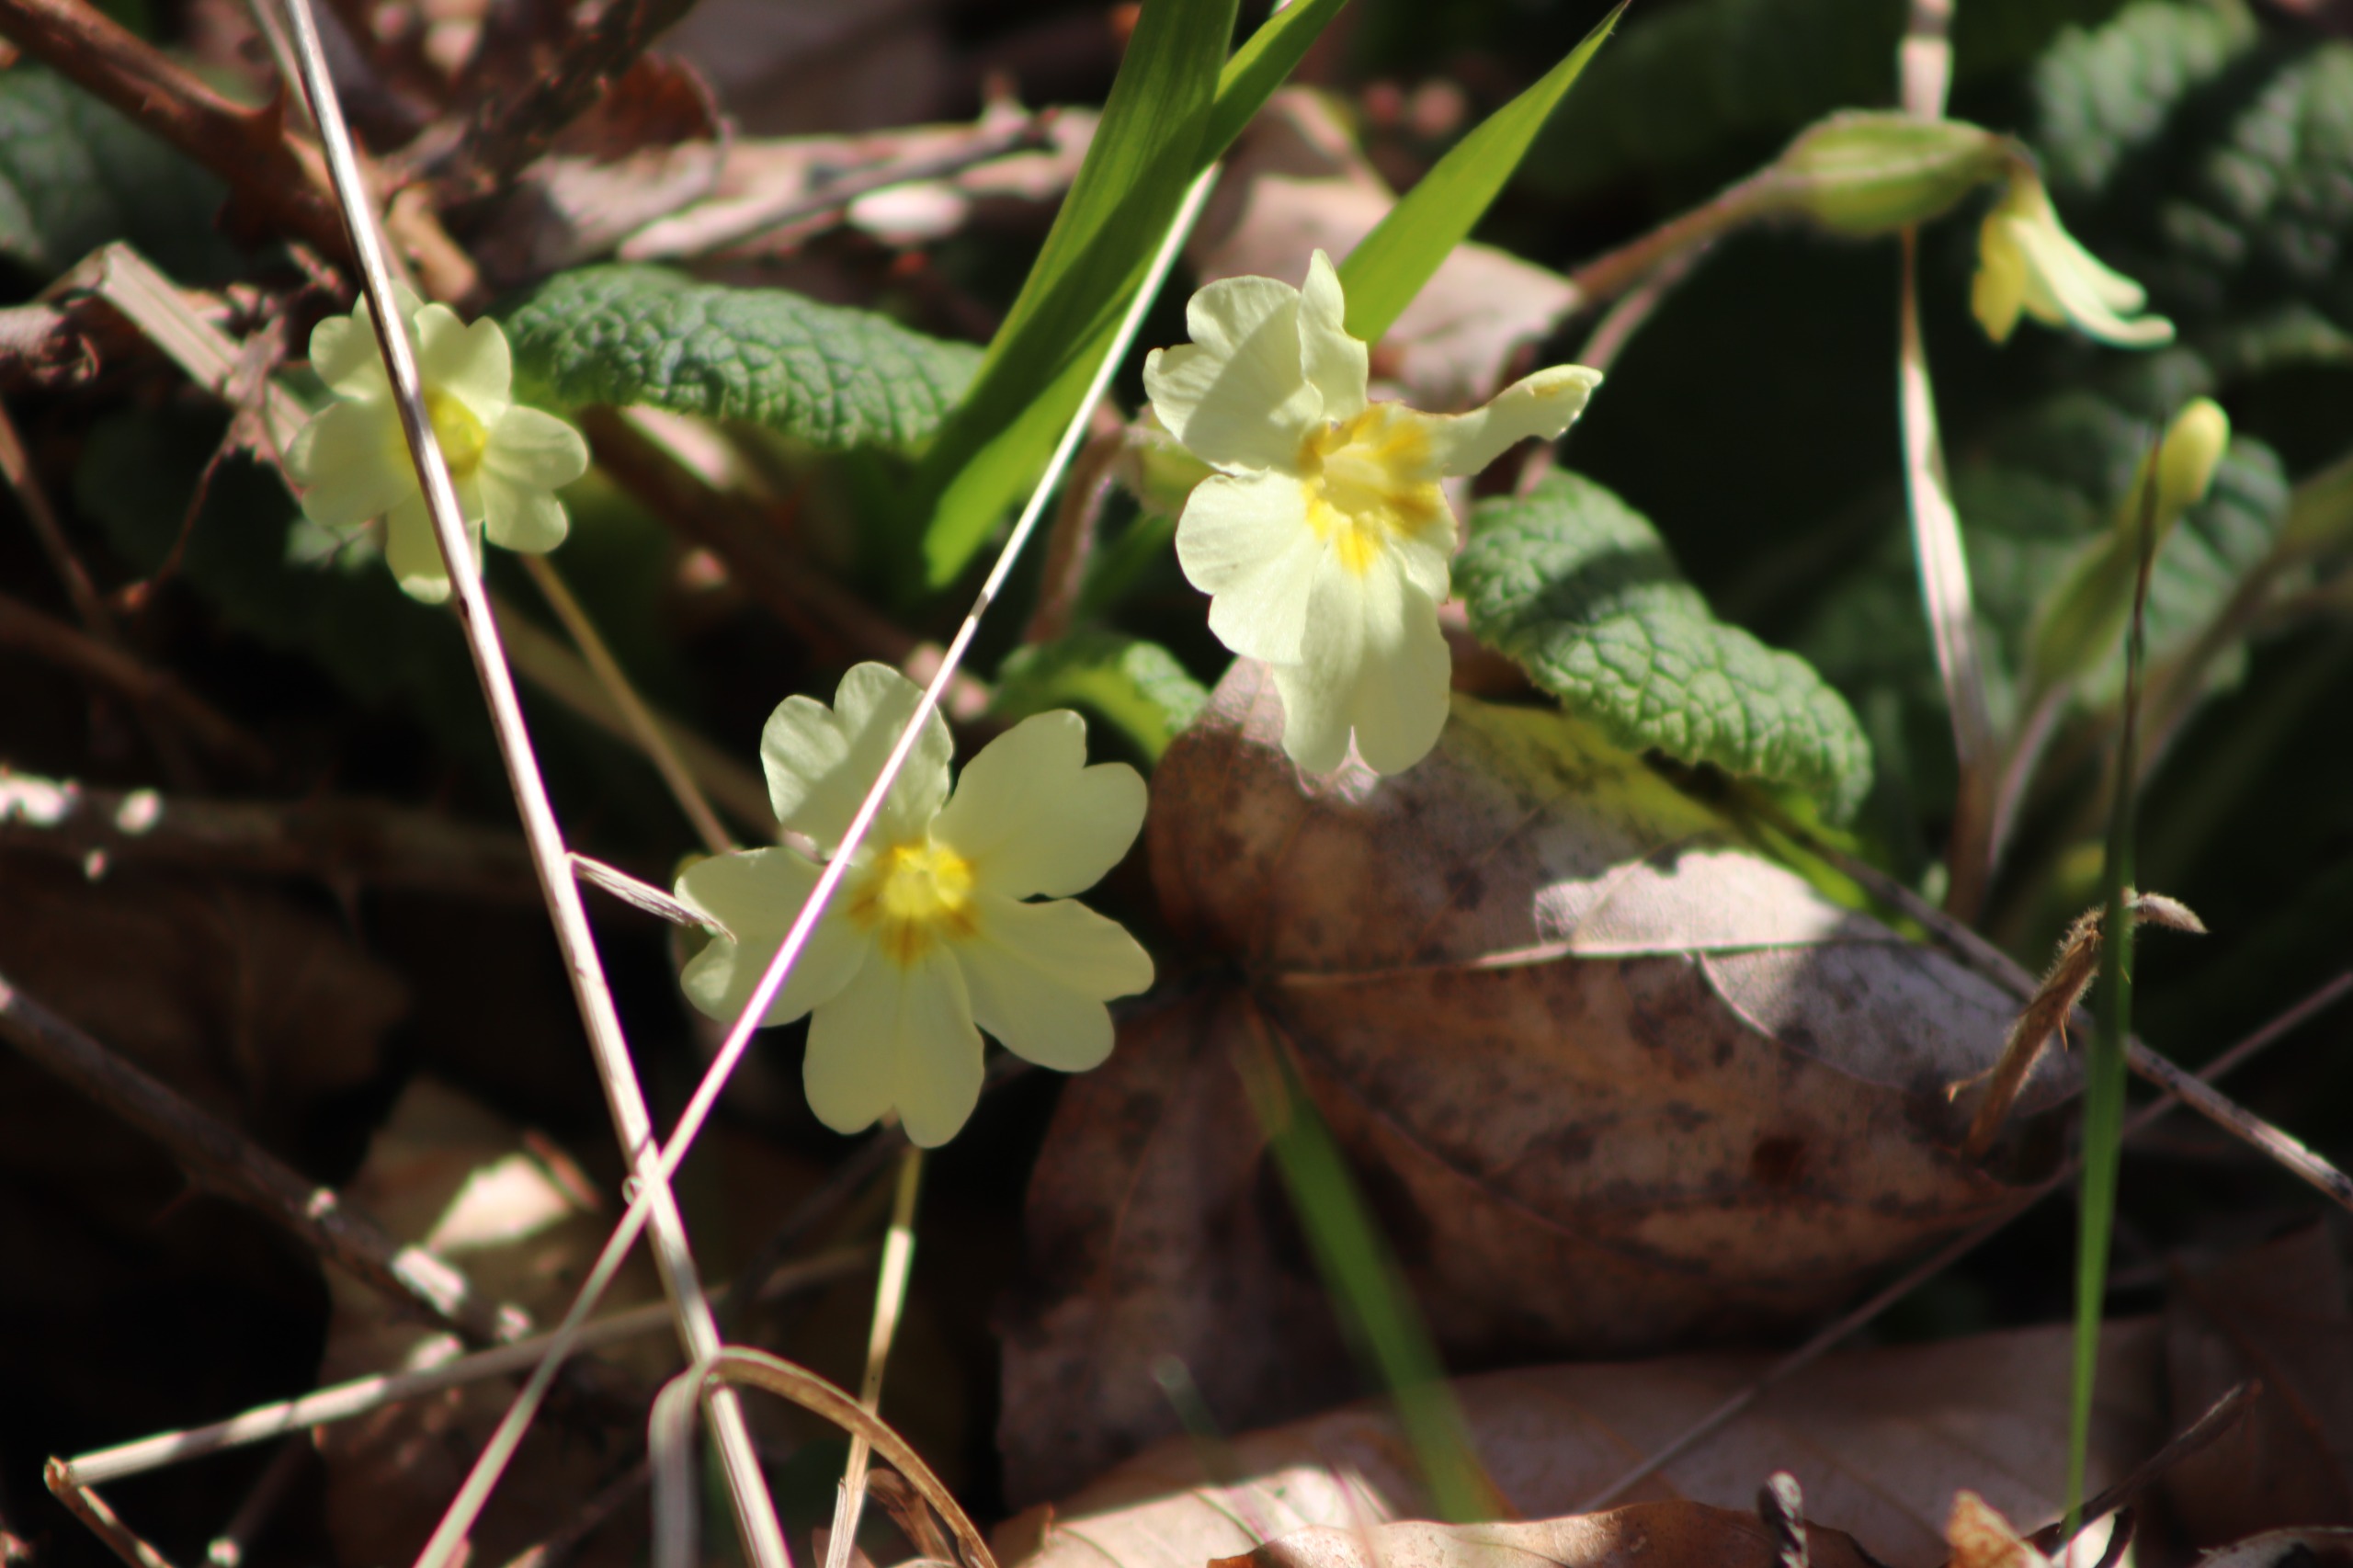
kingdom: Plantae
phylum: Tracheophyta
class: Magnoliopsida
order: Ericales
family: Primulaceae
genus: Primula
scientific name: Primula vulgaris
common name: Storblomstret kodriver
